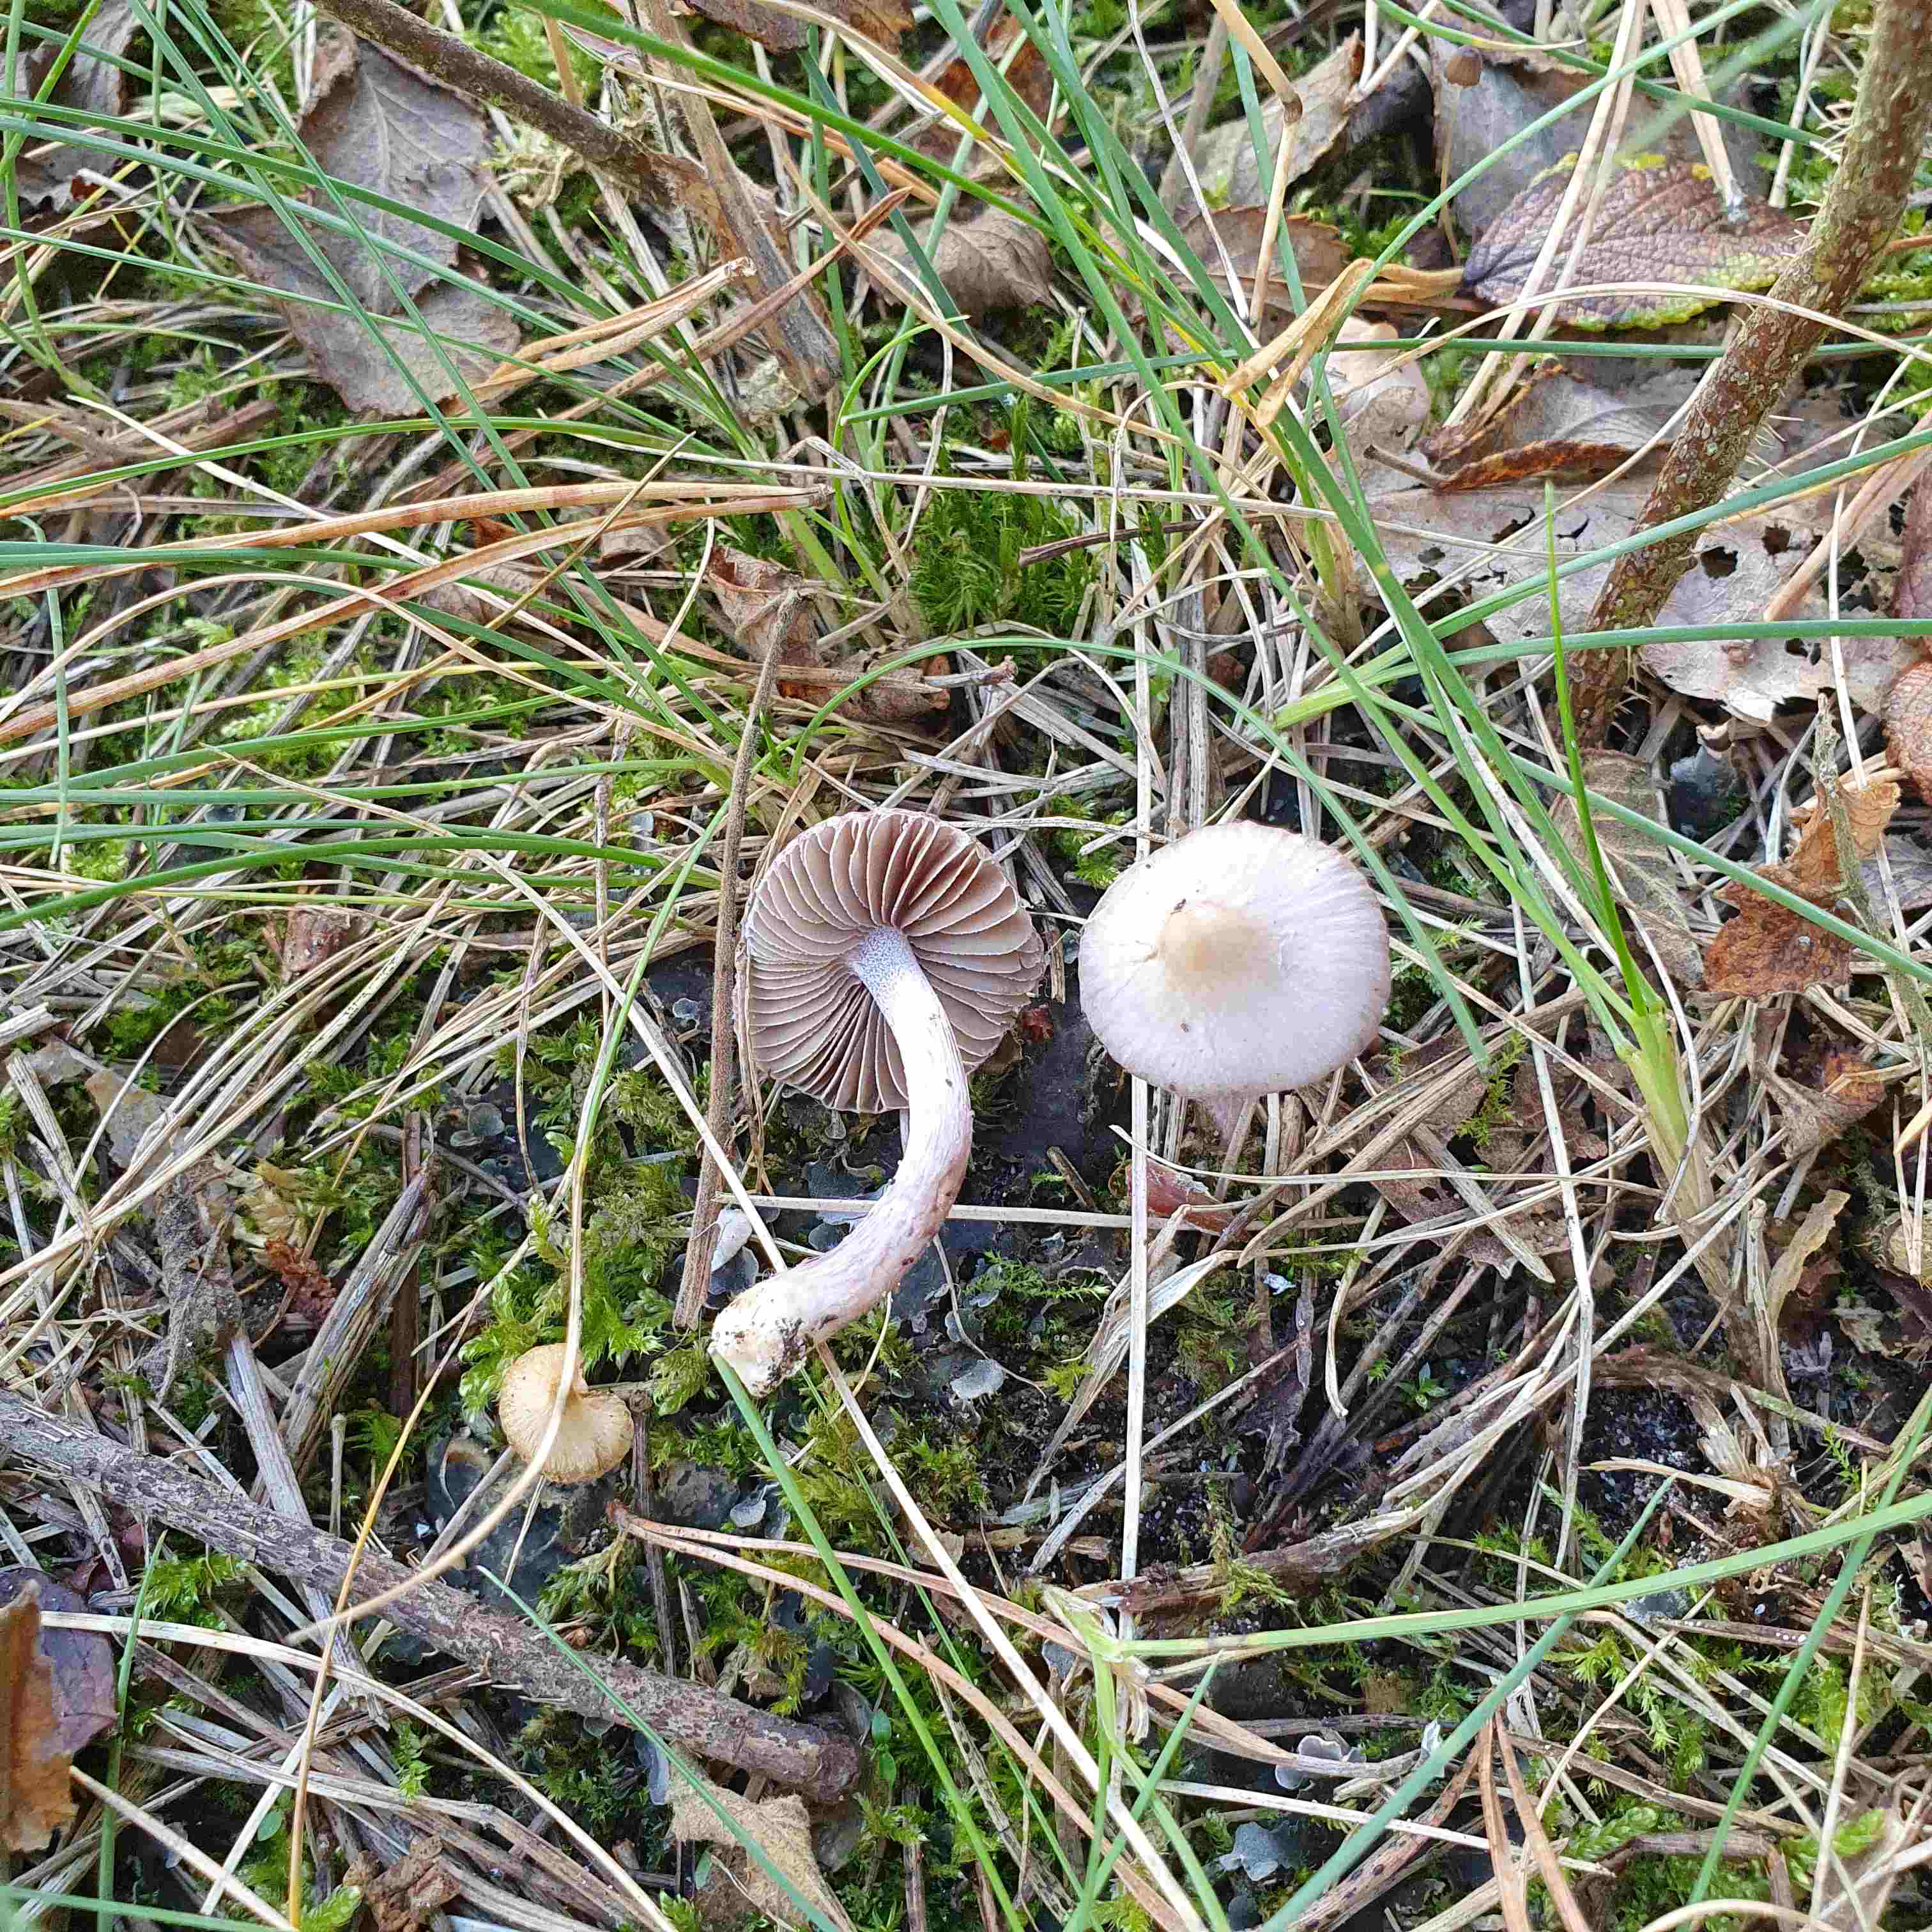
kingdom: Fungi
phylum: Basidiomycota
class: Agaricomycetes
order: Agaricales
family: Inocybaceae
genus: Inocybe
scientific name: Inocybe geophylla
